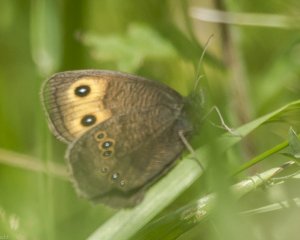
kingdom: Animalia
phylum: Arthropoda
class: Insecta
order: Lepidoptera
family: Nymphalidae
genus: Cercyonis
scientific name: Cercyonis pegala
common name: Common Wood-Nymph
